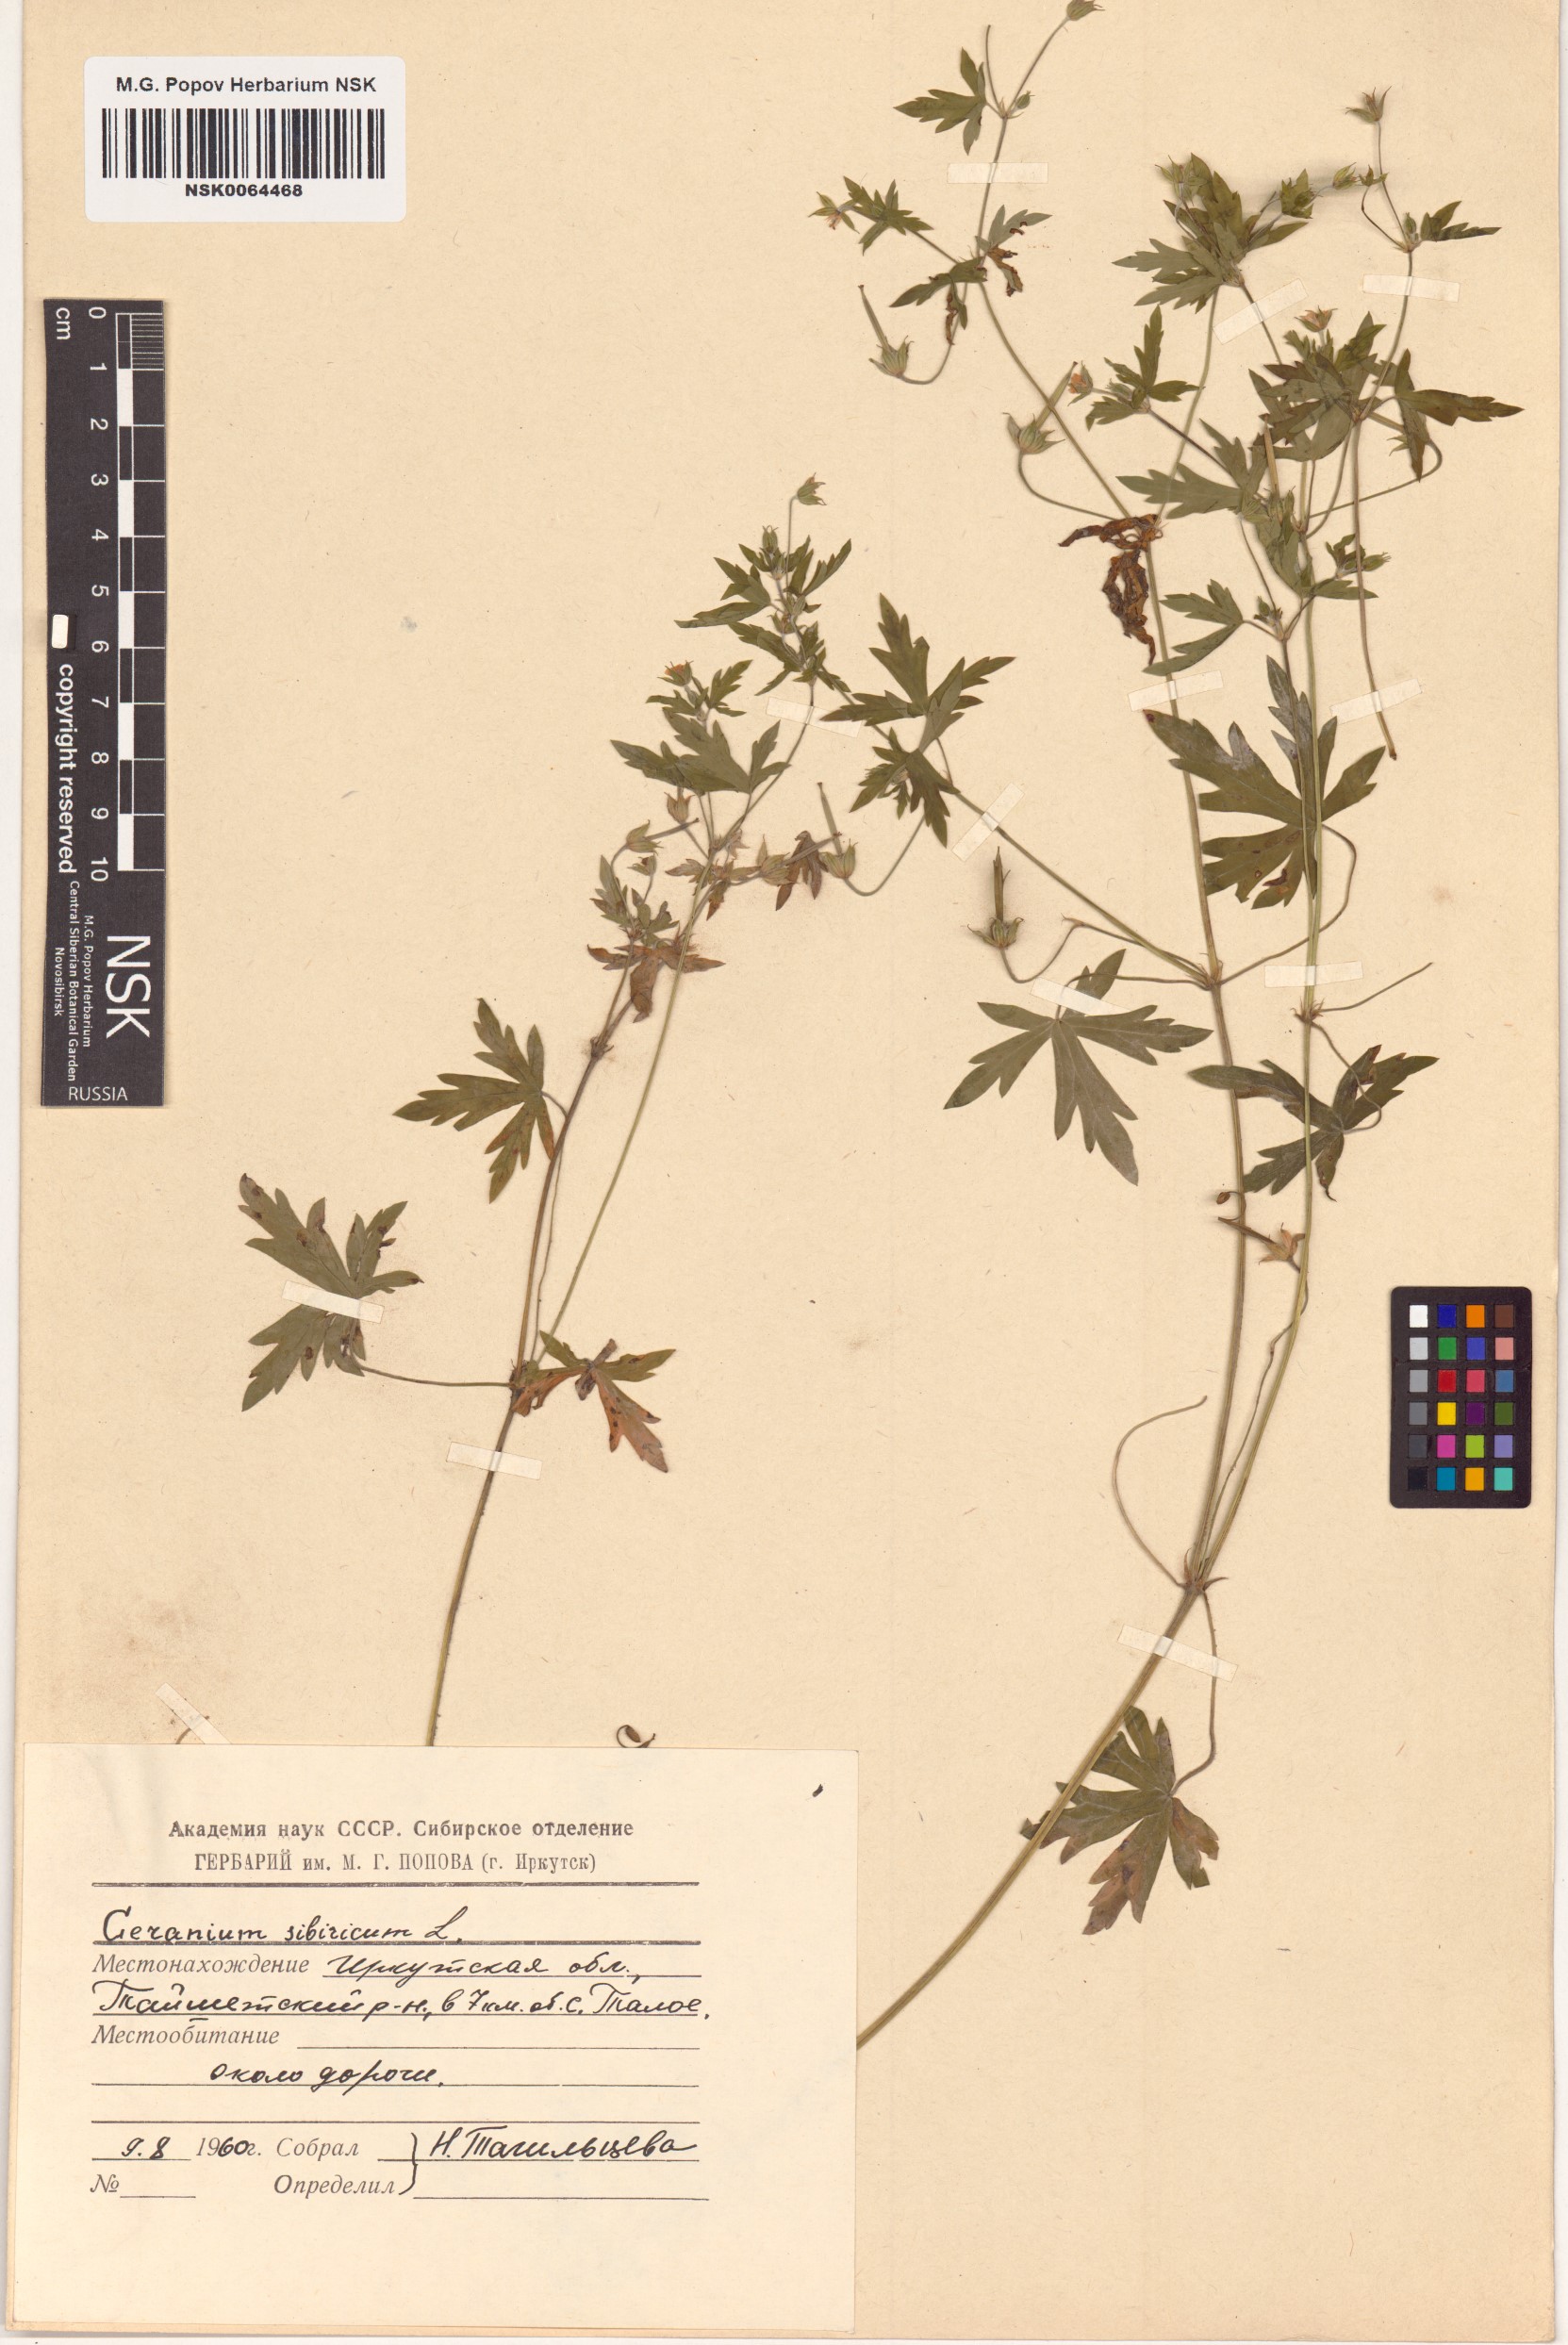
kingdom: Plantae
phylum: Tracheophyta
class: Magnoliopsida
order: Geraniales
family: Geraniaceae
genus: Geranium
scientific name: Geranium sibiricum
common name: Siberian crane's-bill
